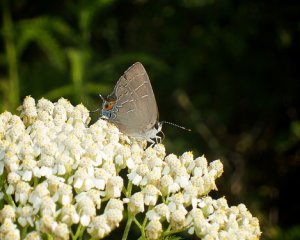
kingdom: Animalia
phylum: Arthropoda
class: Insecta
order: Lepidoptera
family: Lycaenidae
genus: Phaeostrymon
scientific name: Phaeostrymon alcestis
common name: Soapberry Hairstreak
